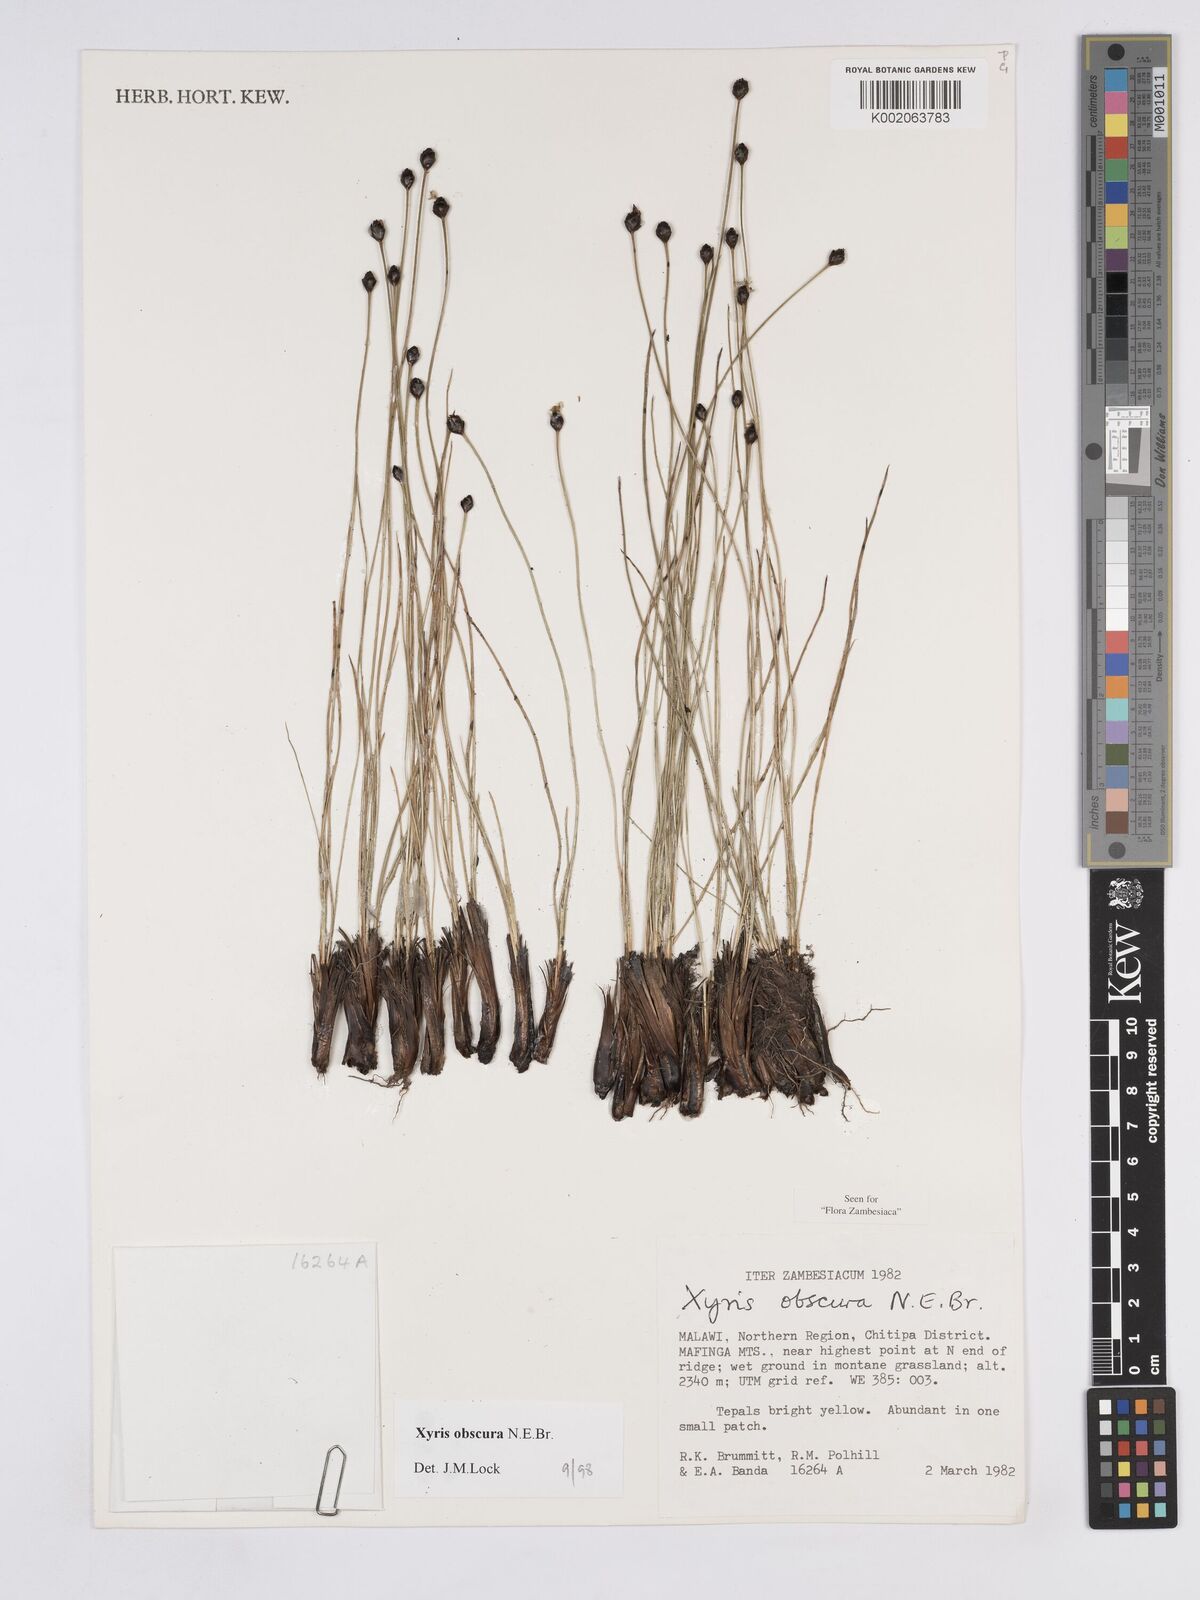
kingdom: Plantae
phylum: Tracheophyta
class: Liliopsida
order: Poales
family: Xyridaceae
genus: Xyris
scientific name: Xyris obscura
